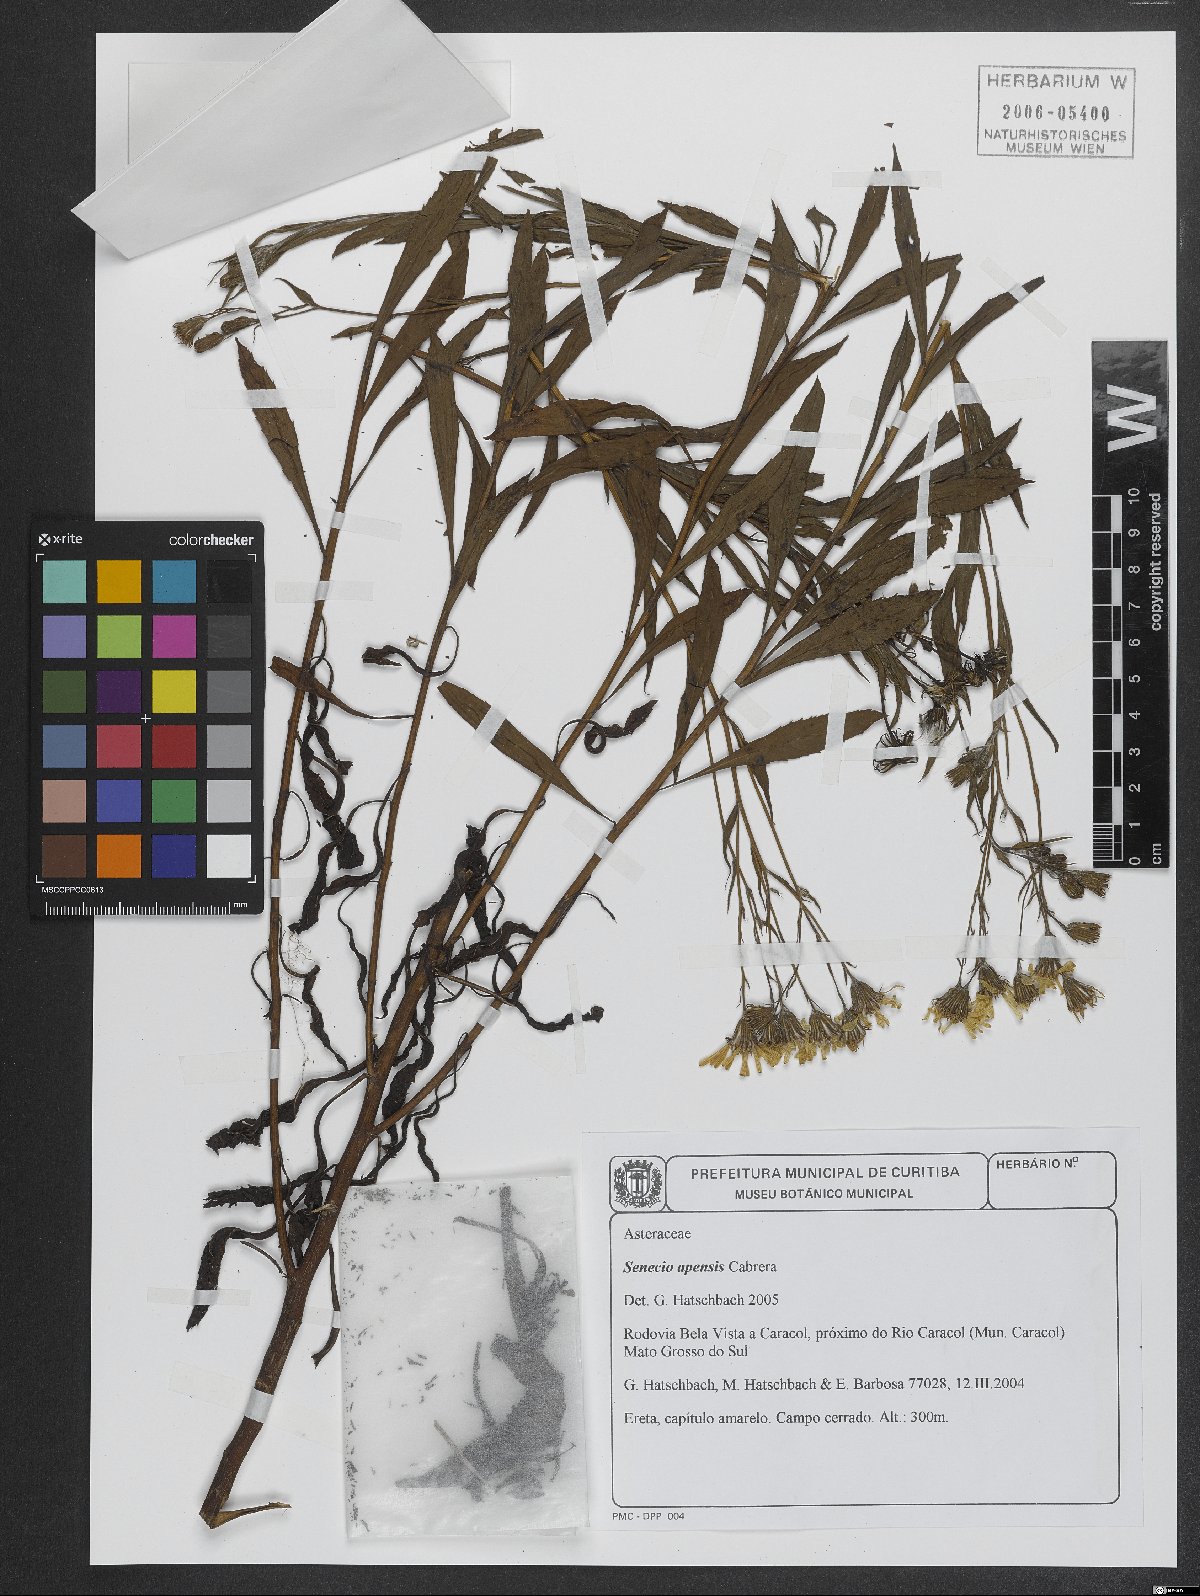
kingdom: Plantae
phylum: Tracheophyta
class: Magnoliopsida
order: Asterales
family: Asteraceae
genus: Senecio
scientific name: Senecio apensis
